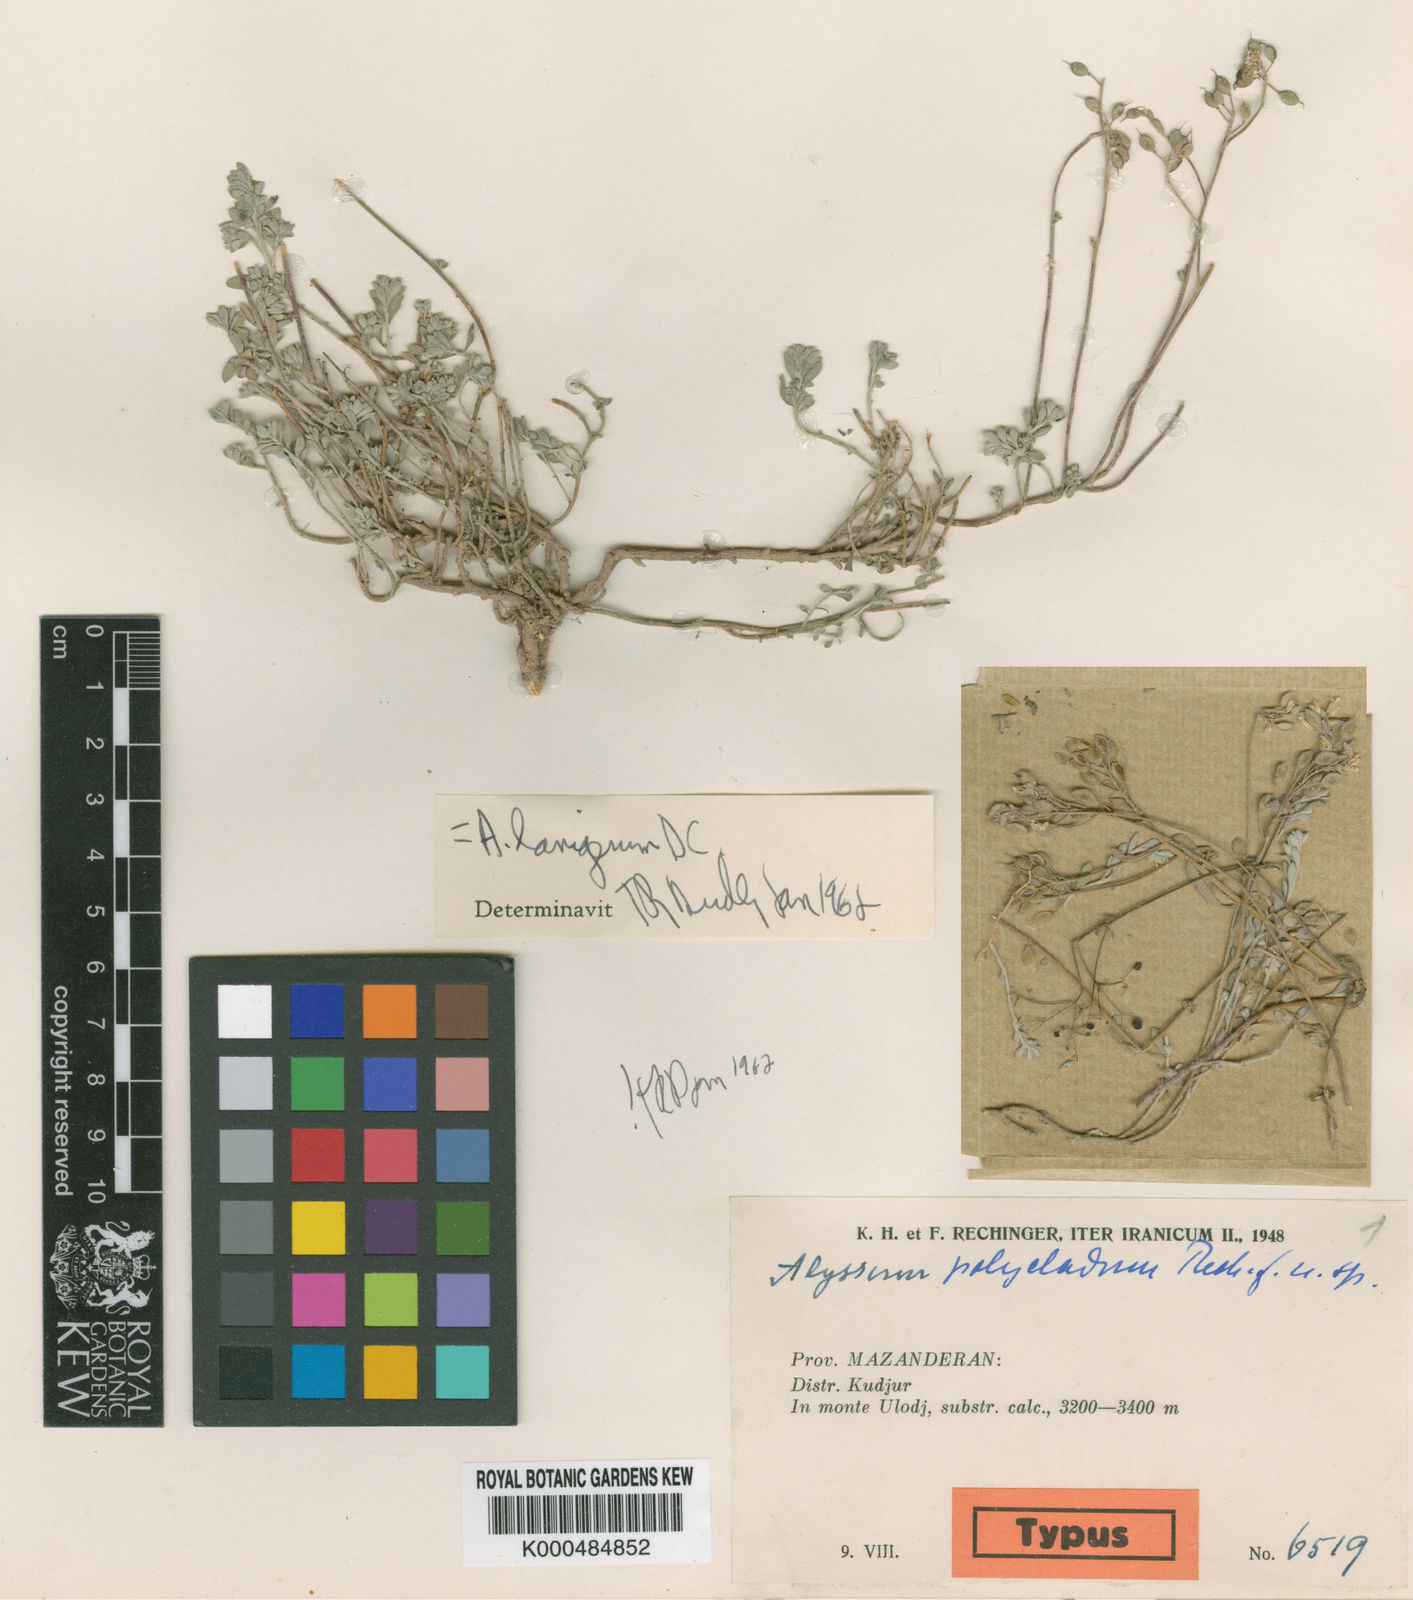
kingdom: Plantae
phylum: Tracheophyta
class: Magnoliopsida
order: Brassicales
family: Brassicaceae
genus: Odontarrhena
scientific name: Odontarrhena polyclada
